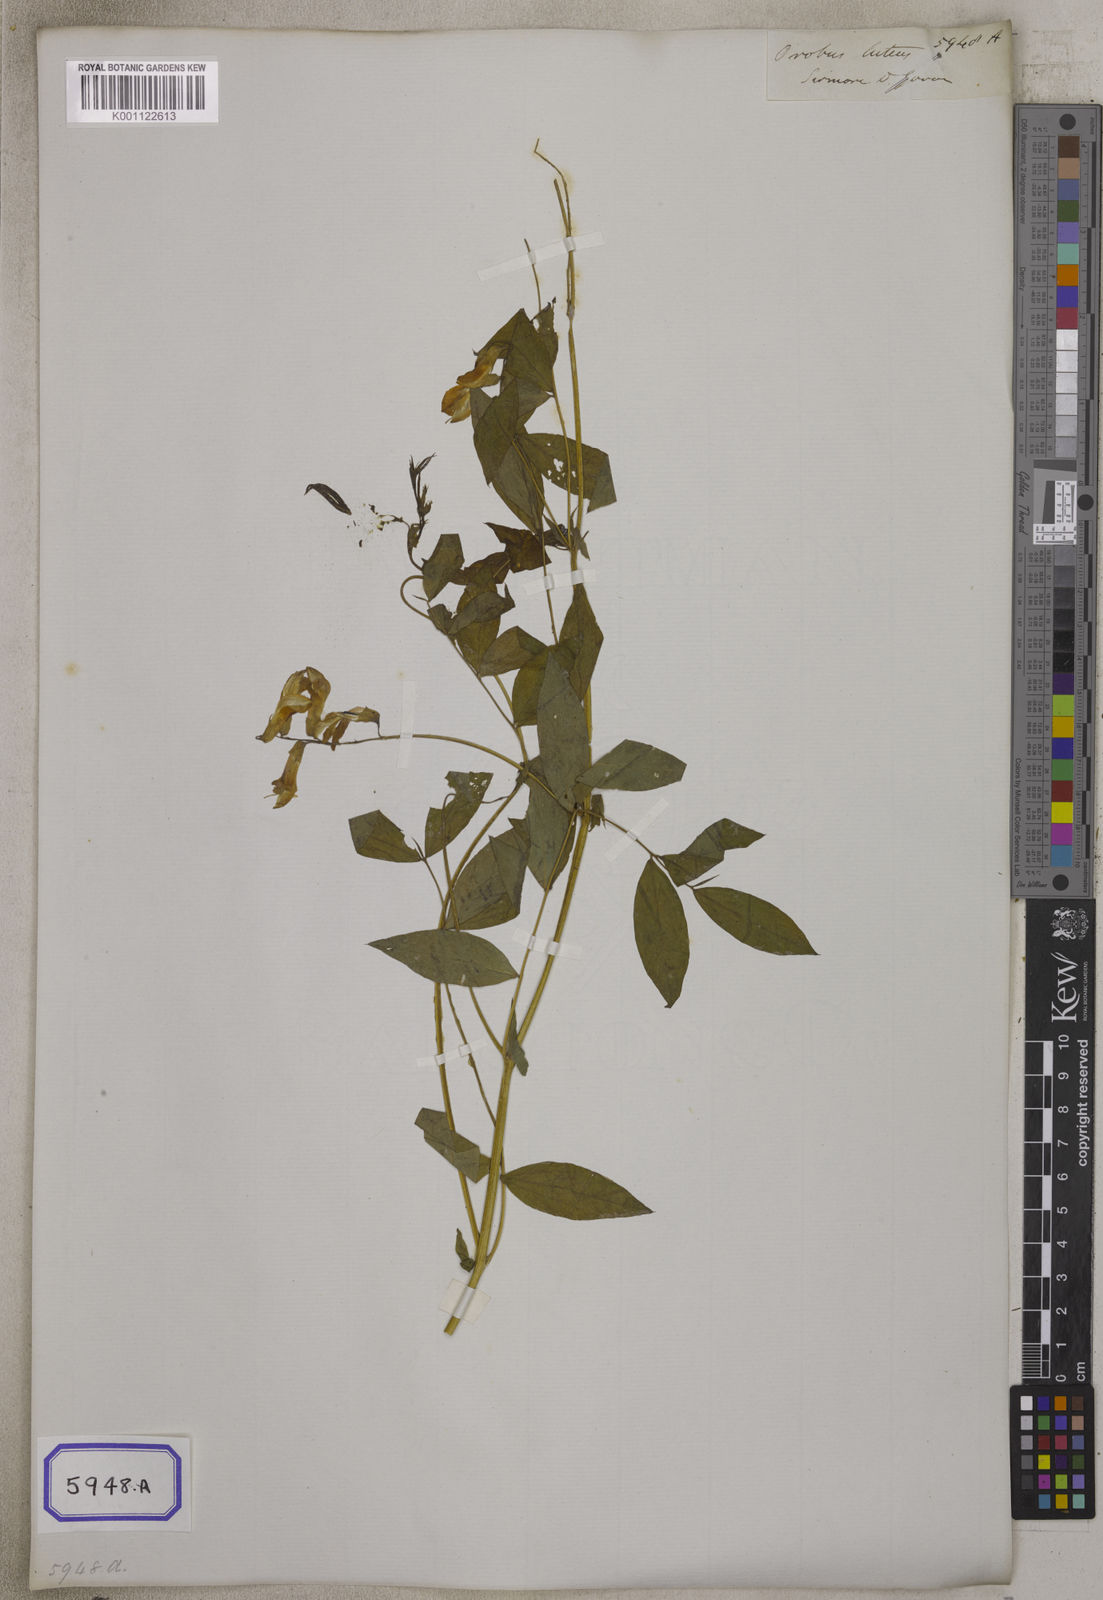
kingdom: Plantae
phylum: Tracheophyta
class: Magnoliopsida
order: Fabales
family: Fabaceae
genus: Lathyrus
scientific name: Lathyrus
